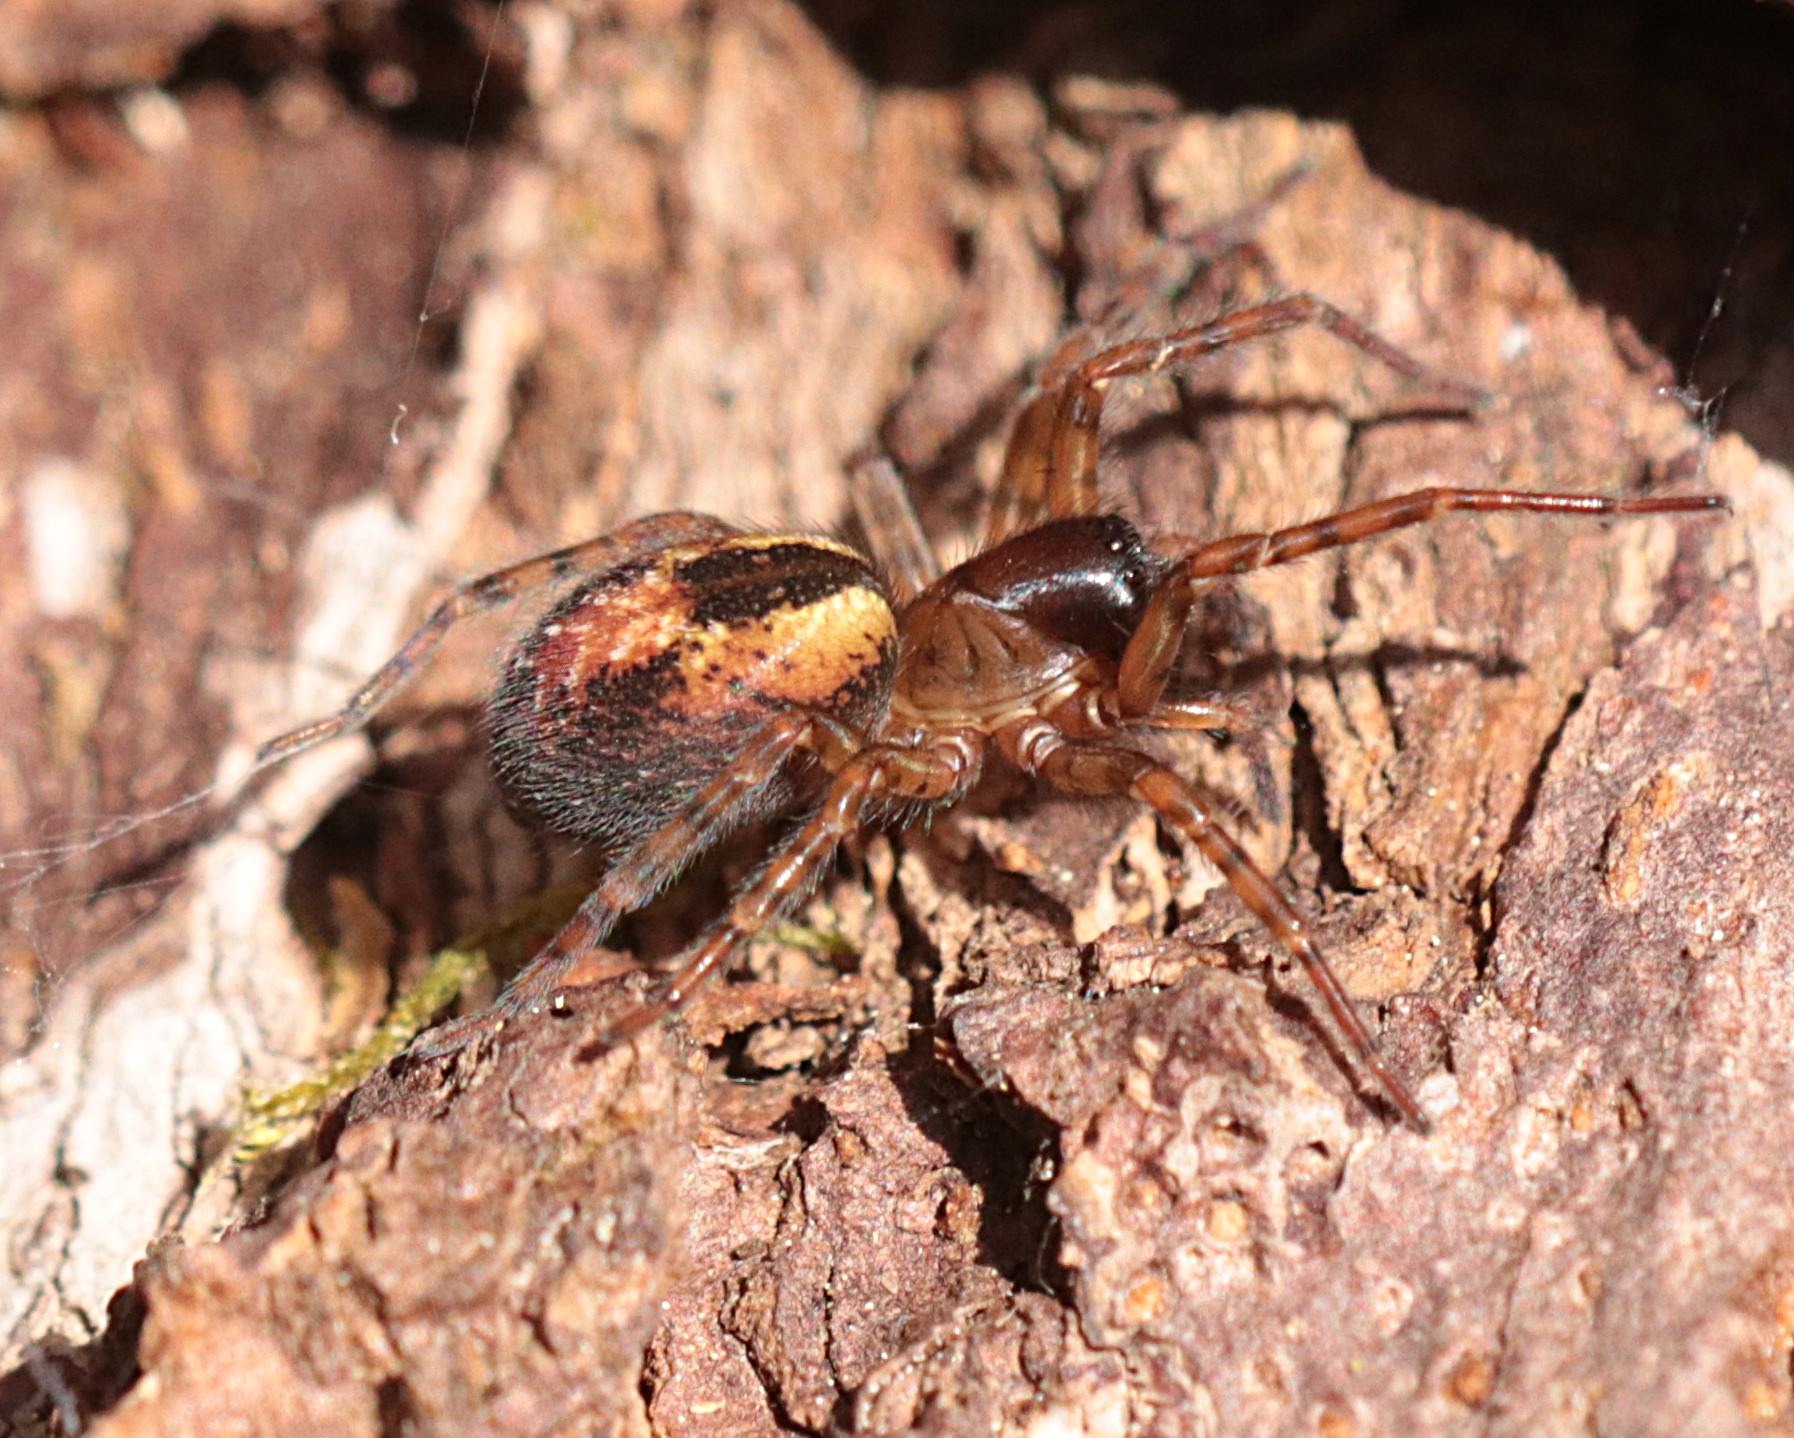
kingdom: Animalia
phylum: Arthropoda
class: Arachnida
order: Araneae
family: Amaurobiidae
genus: Amaurobius
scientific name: Amaurobius fenestralis
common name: Skovkartespinder
